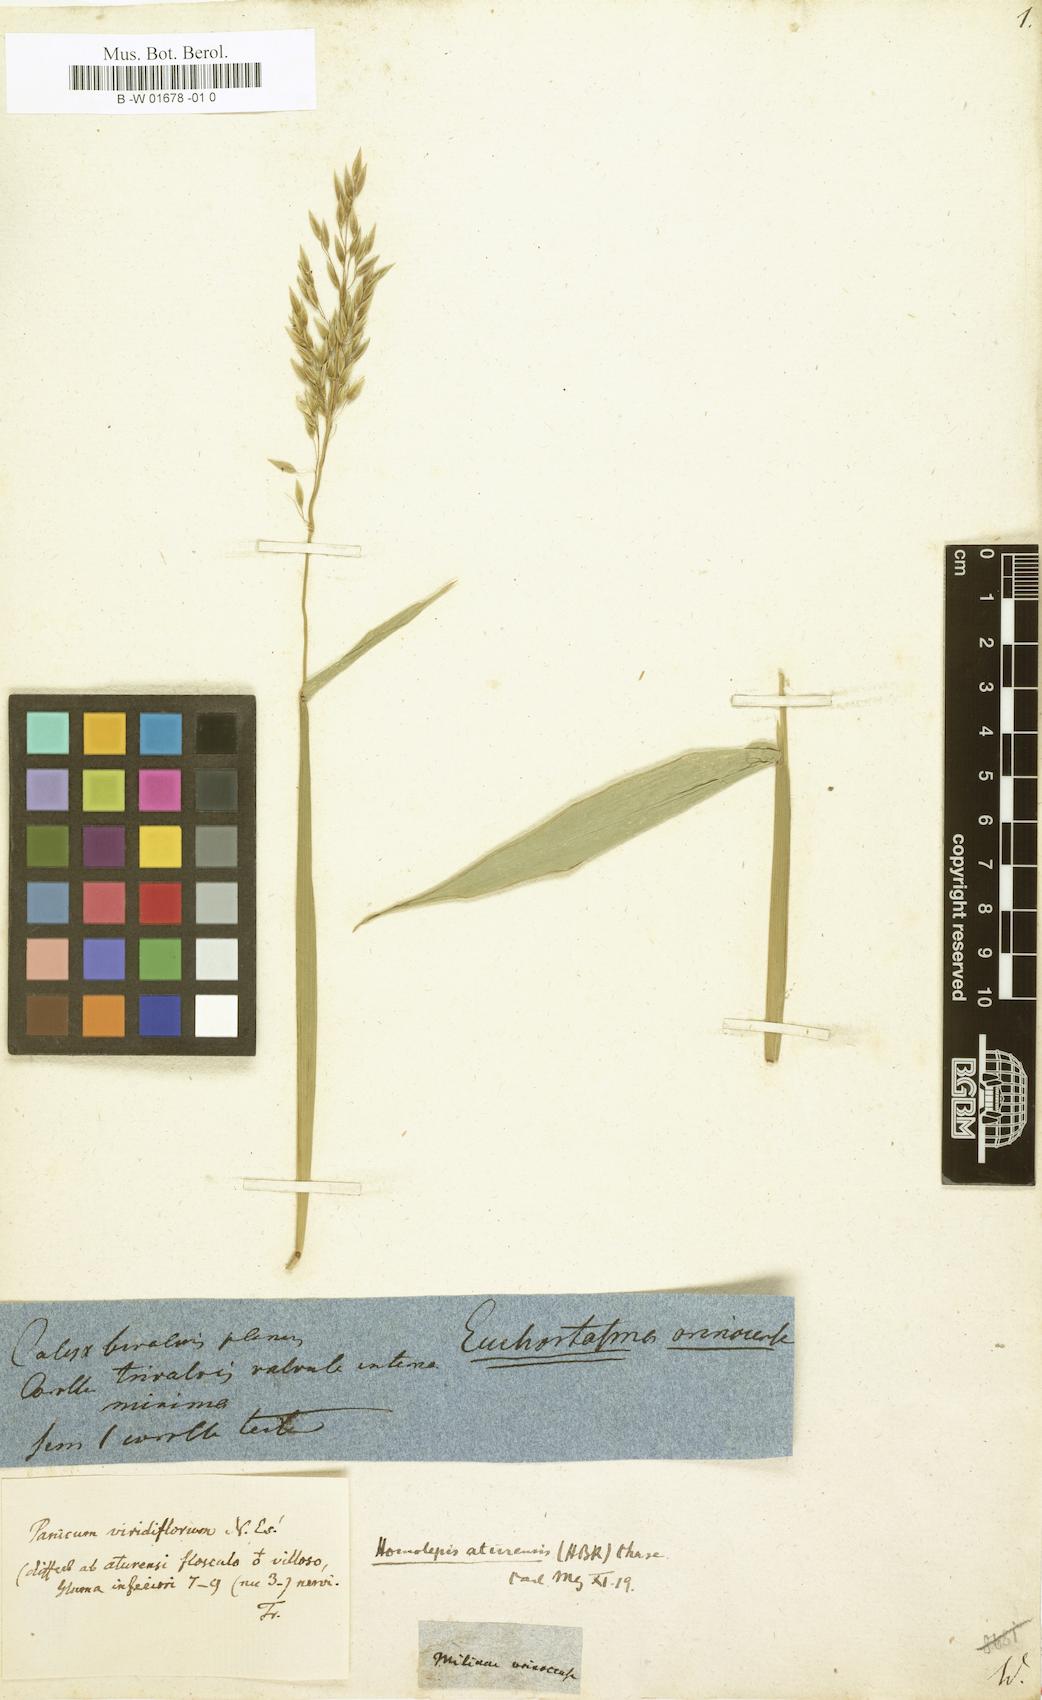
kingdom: Plantae
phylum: Tracheophyta
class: Liliopsida
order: Poales
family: Poaceae
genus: Homolepis
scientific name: Homolepis aturensis
